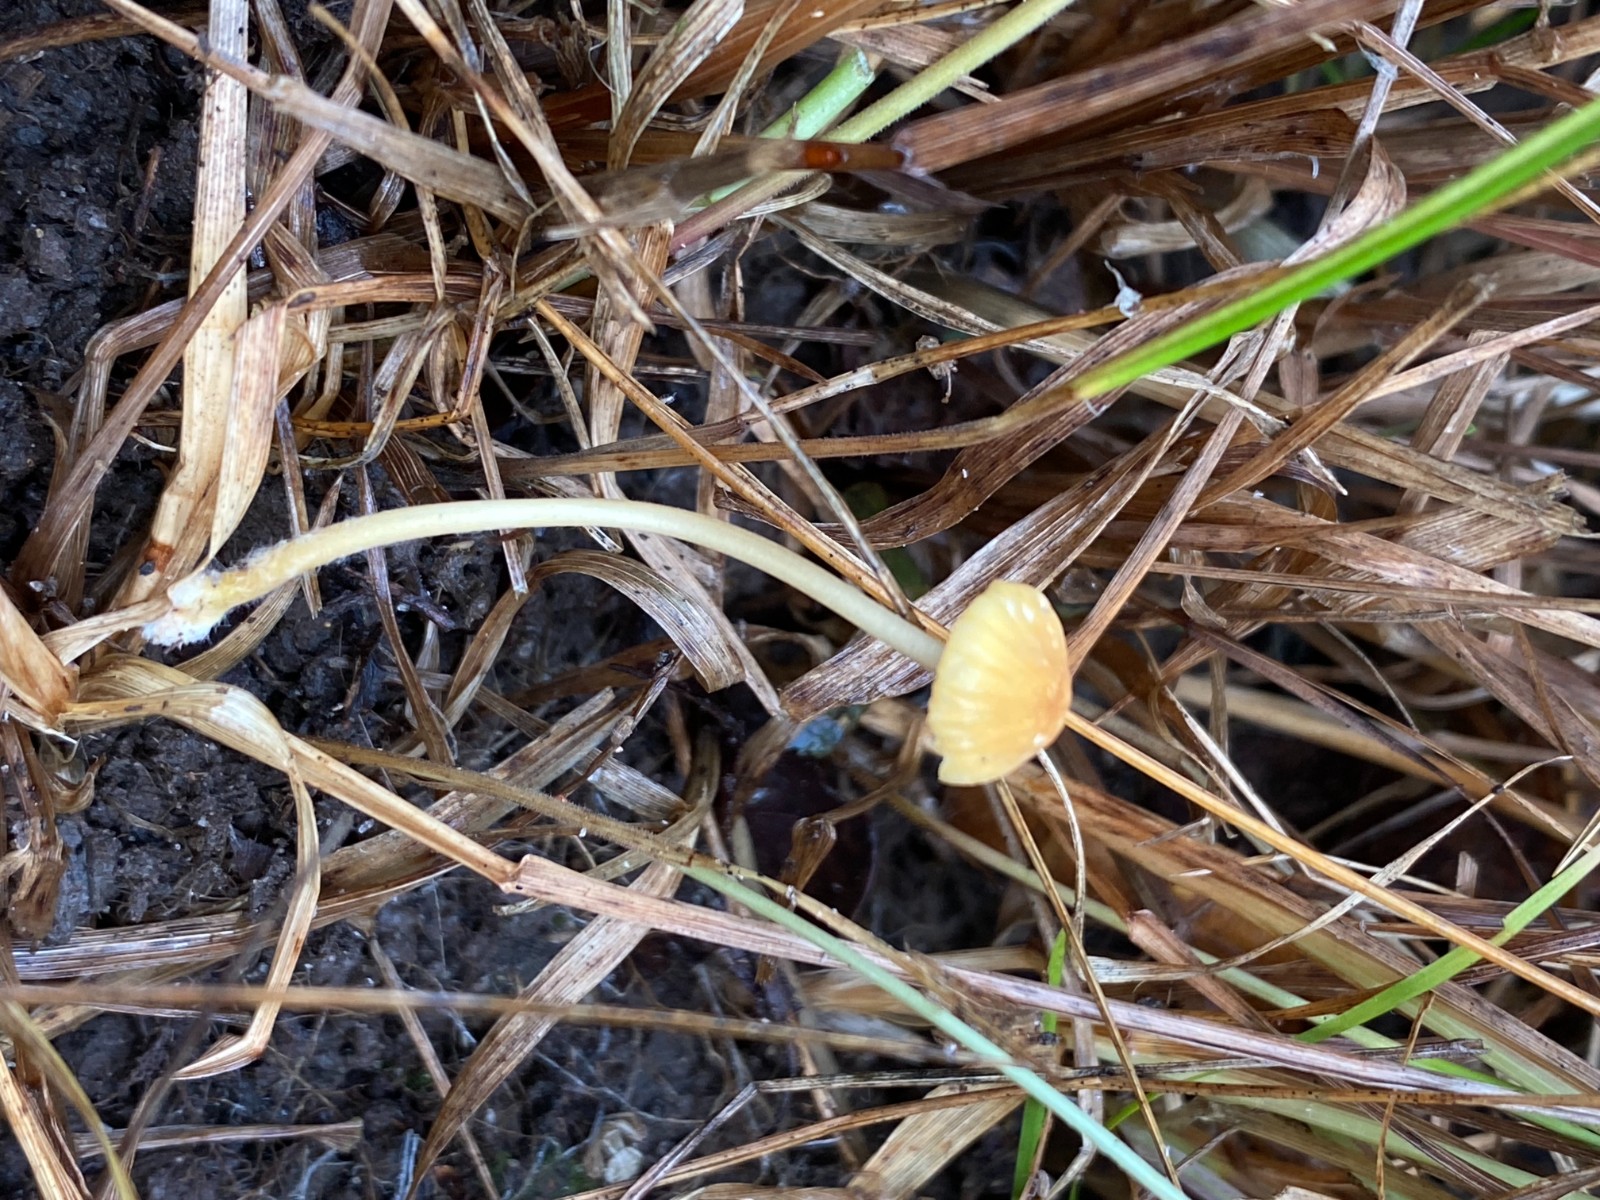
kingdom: Fungi
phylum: Basidiomycota
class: Agaricomycetes
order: Agaricales
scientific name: Agaricales
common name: champignonordenen
